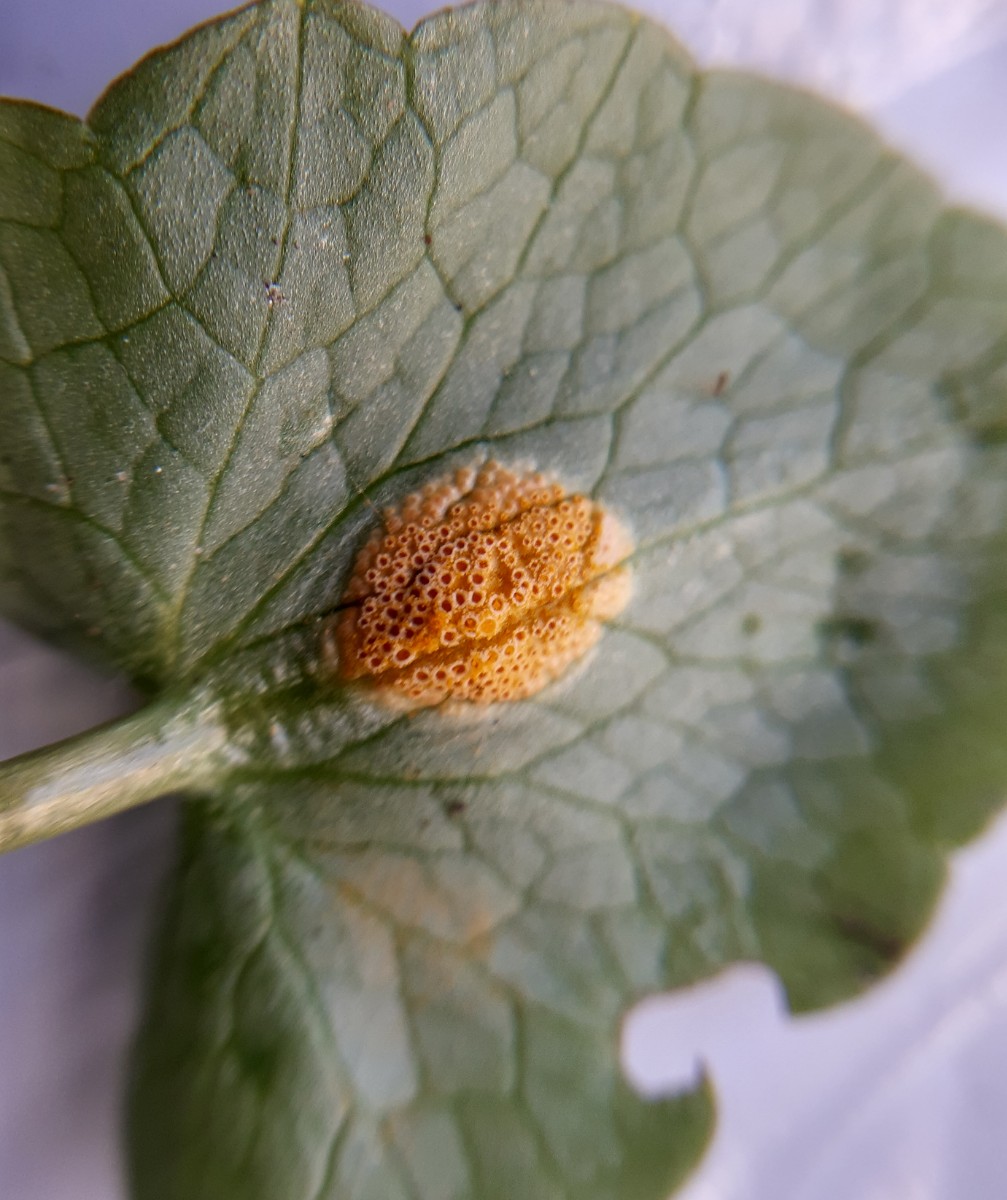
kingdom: Fungi
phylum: Basidiomycota
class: Pucciniomycetes
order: Pucciniales
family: Pucciniaceae
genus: Uromyces
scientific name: Uromyces dactylidis
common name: ranunkel-encellerust
